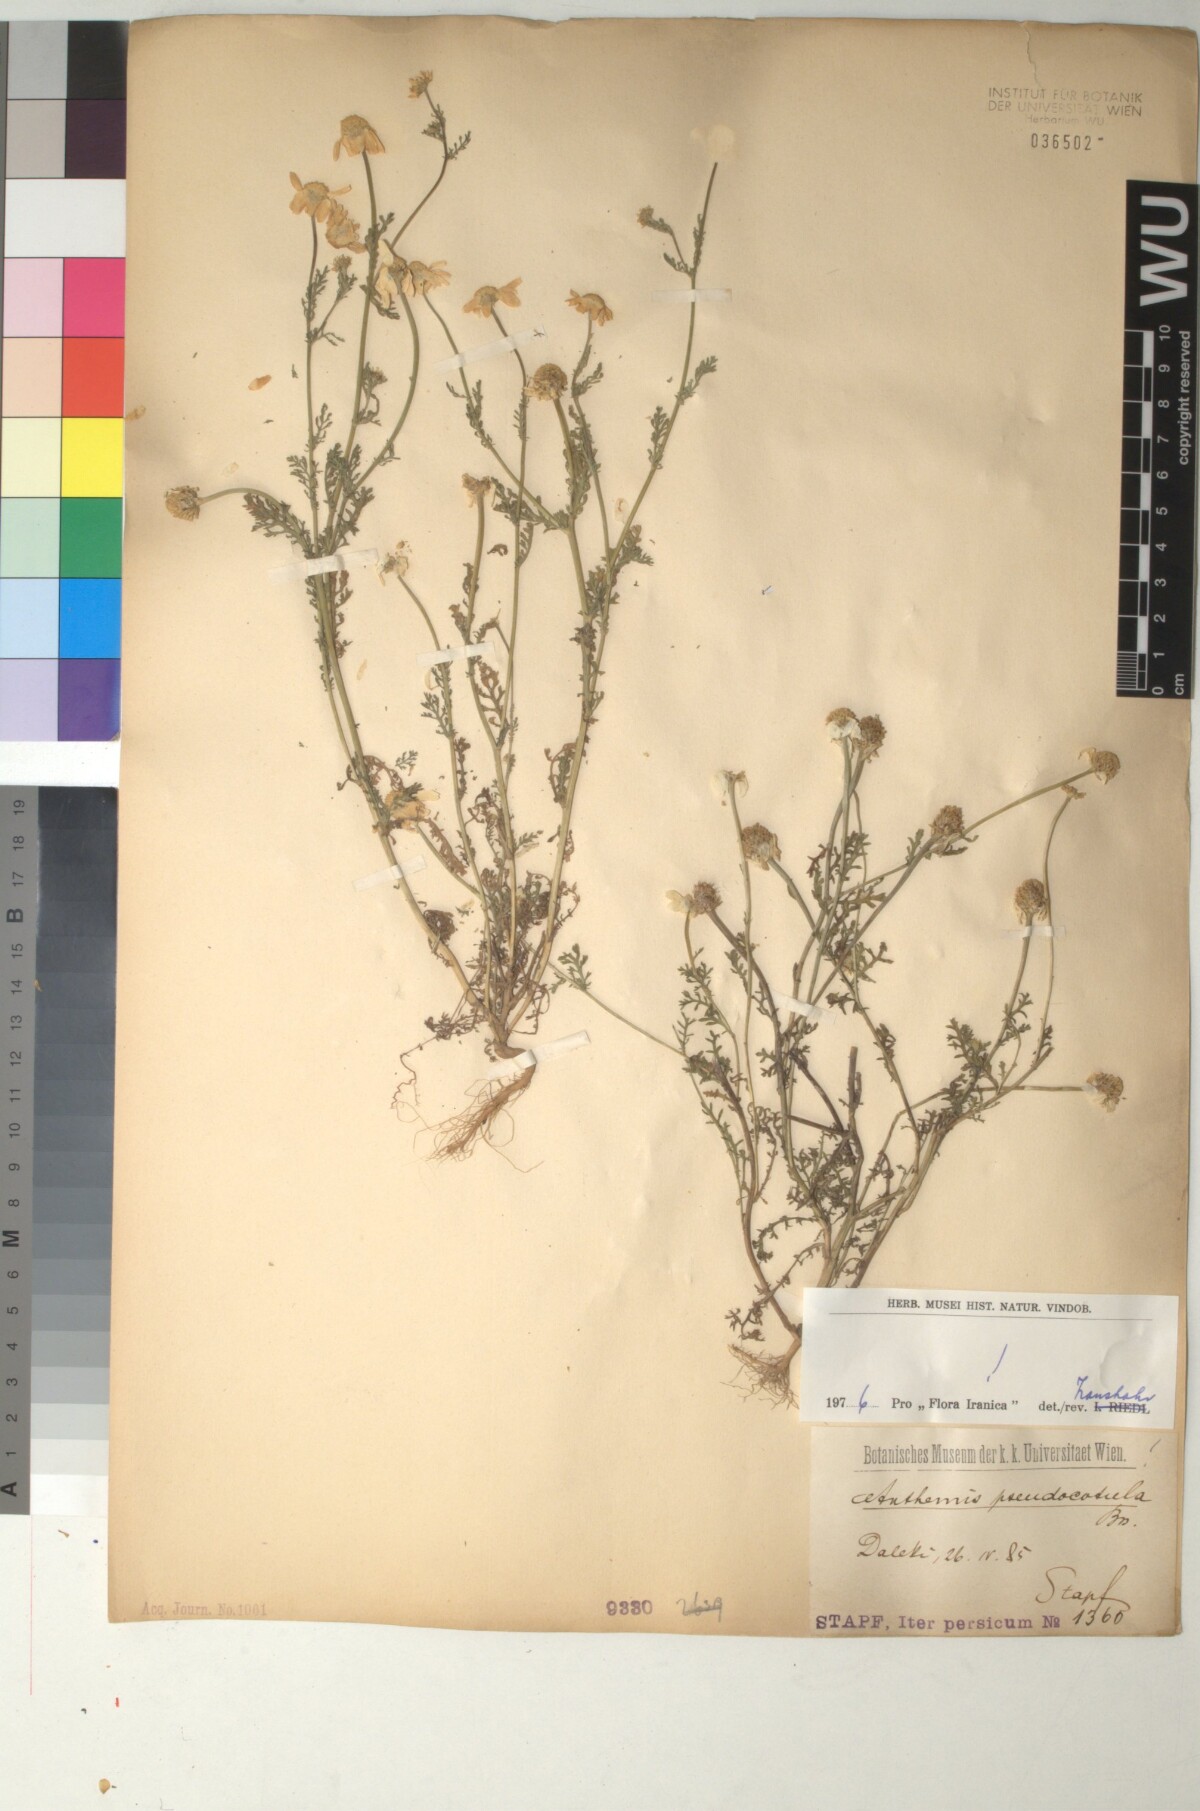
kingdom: Plantae
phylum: Tracheophyta
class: Magnoliopsida
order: Asterales
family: Asteraceae
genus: Anthemis
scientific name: Anthemis pseudocotula
